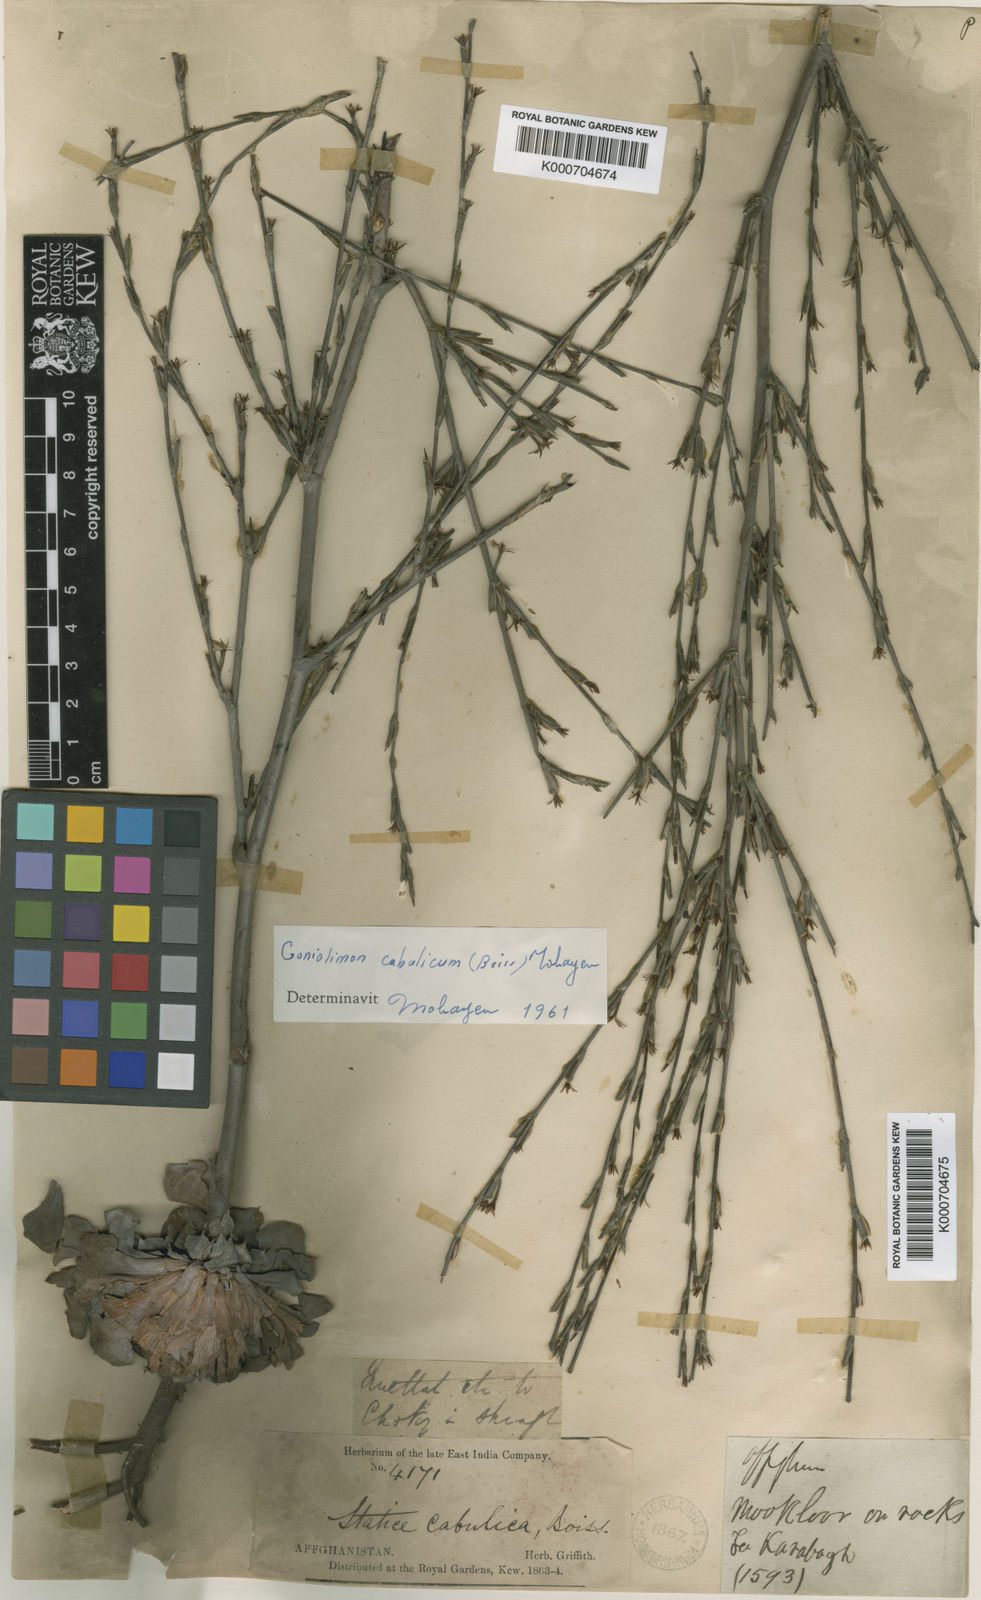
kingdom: Plantae
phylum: Tracheophyta
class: Magnoliopsida
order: Caryophyllales
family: Plumbaginaceae
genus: Bukiniczia
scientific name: Bukiniczia cabulica
